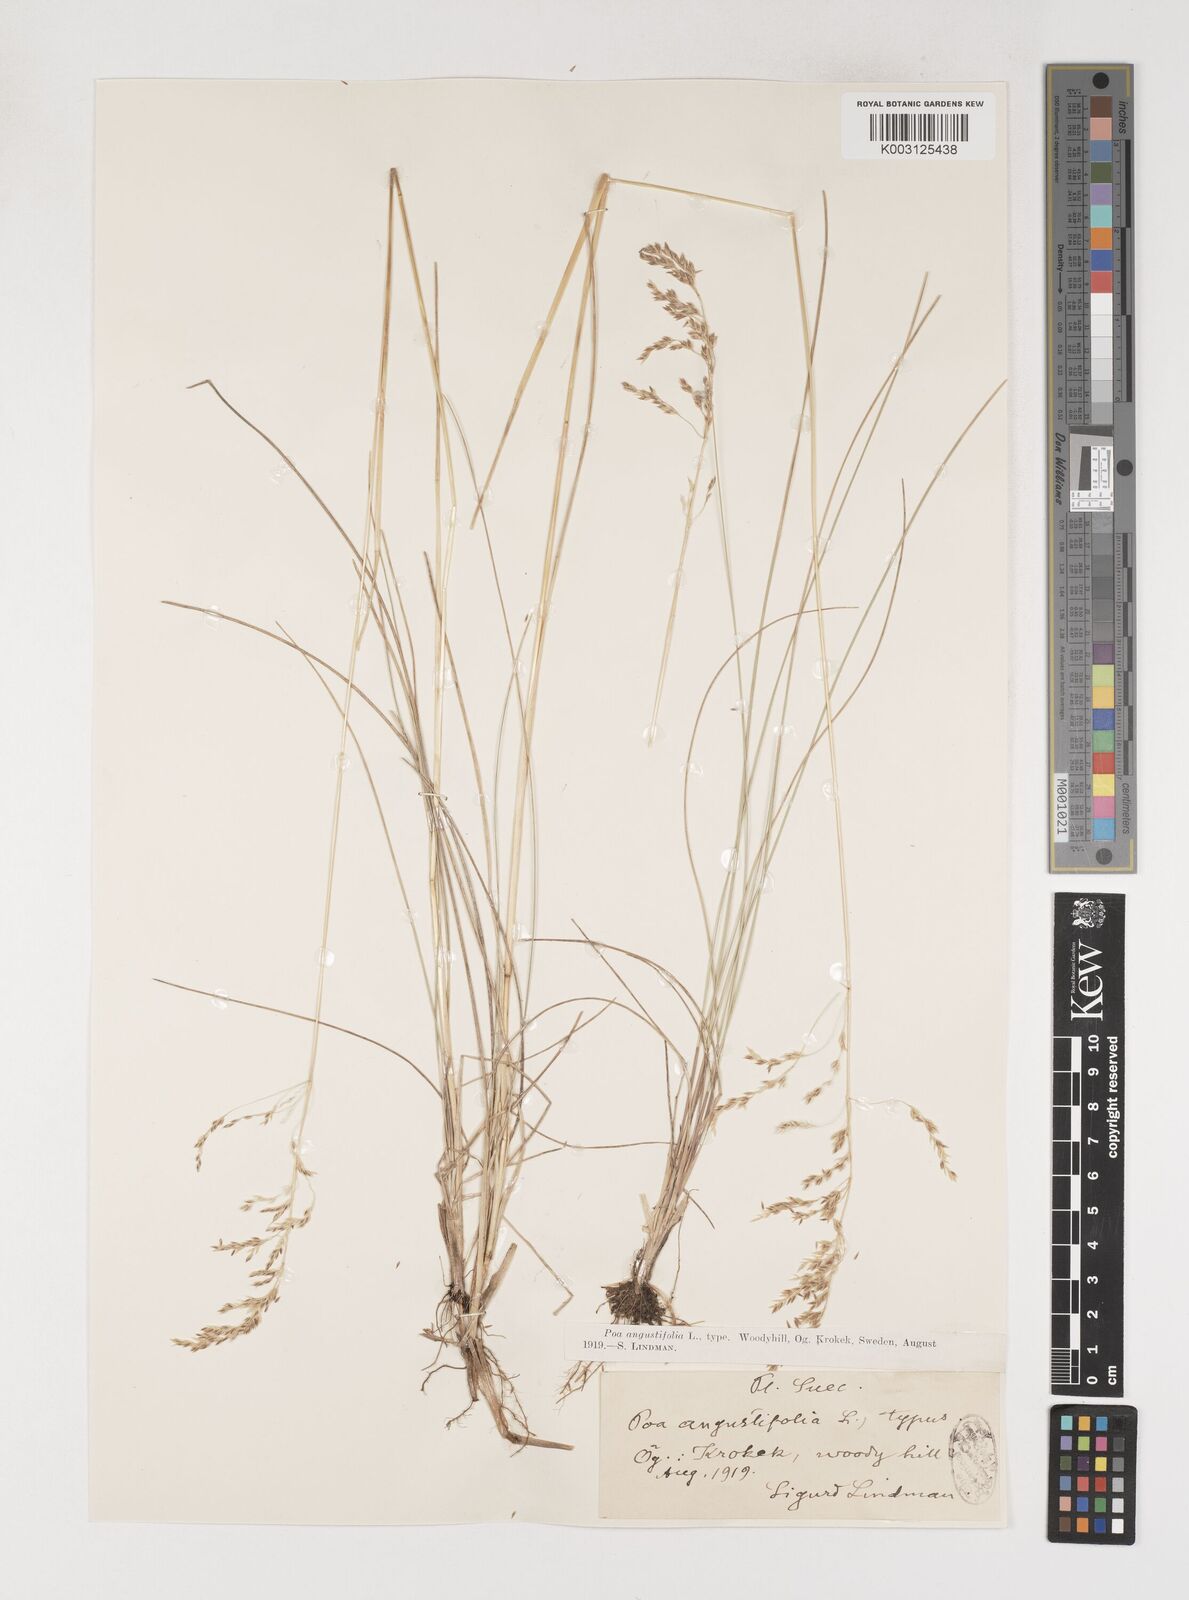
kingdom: Plantae
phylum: Tracheophyta
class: Liliopsida
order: Poales
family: Poaceae
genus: Poa
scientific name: Poa angustifolia
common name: Narrow-leaved meadow-grass
